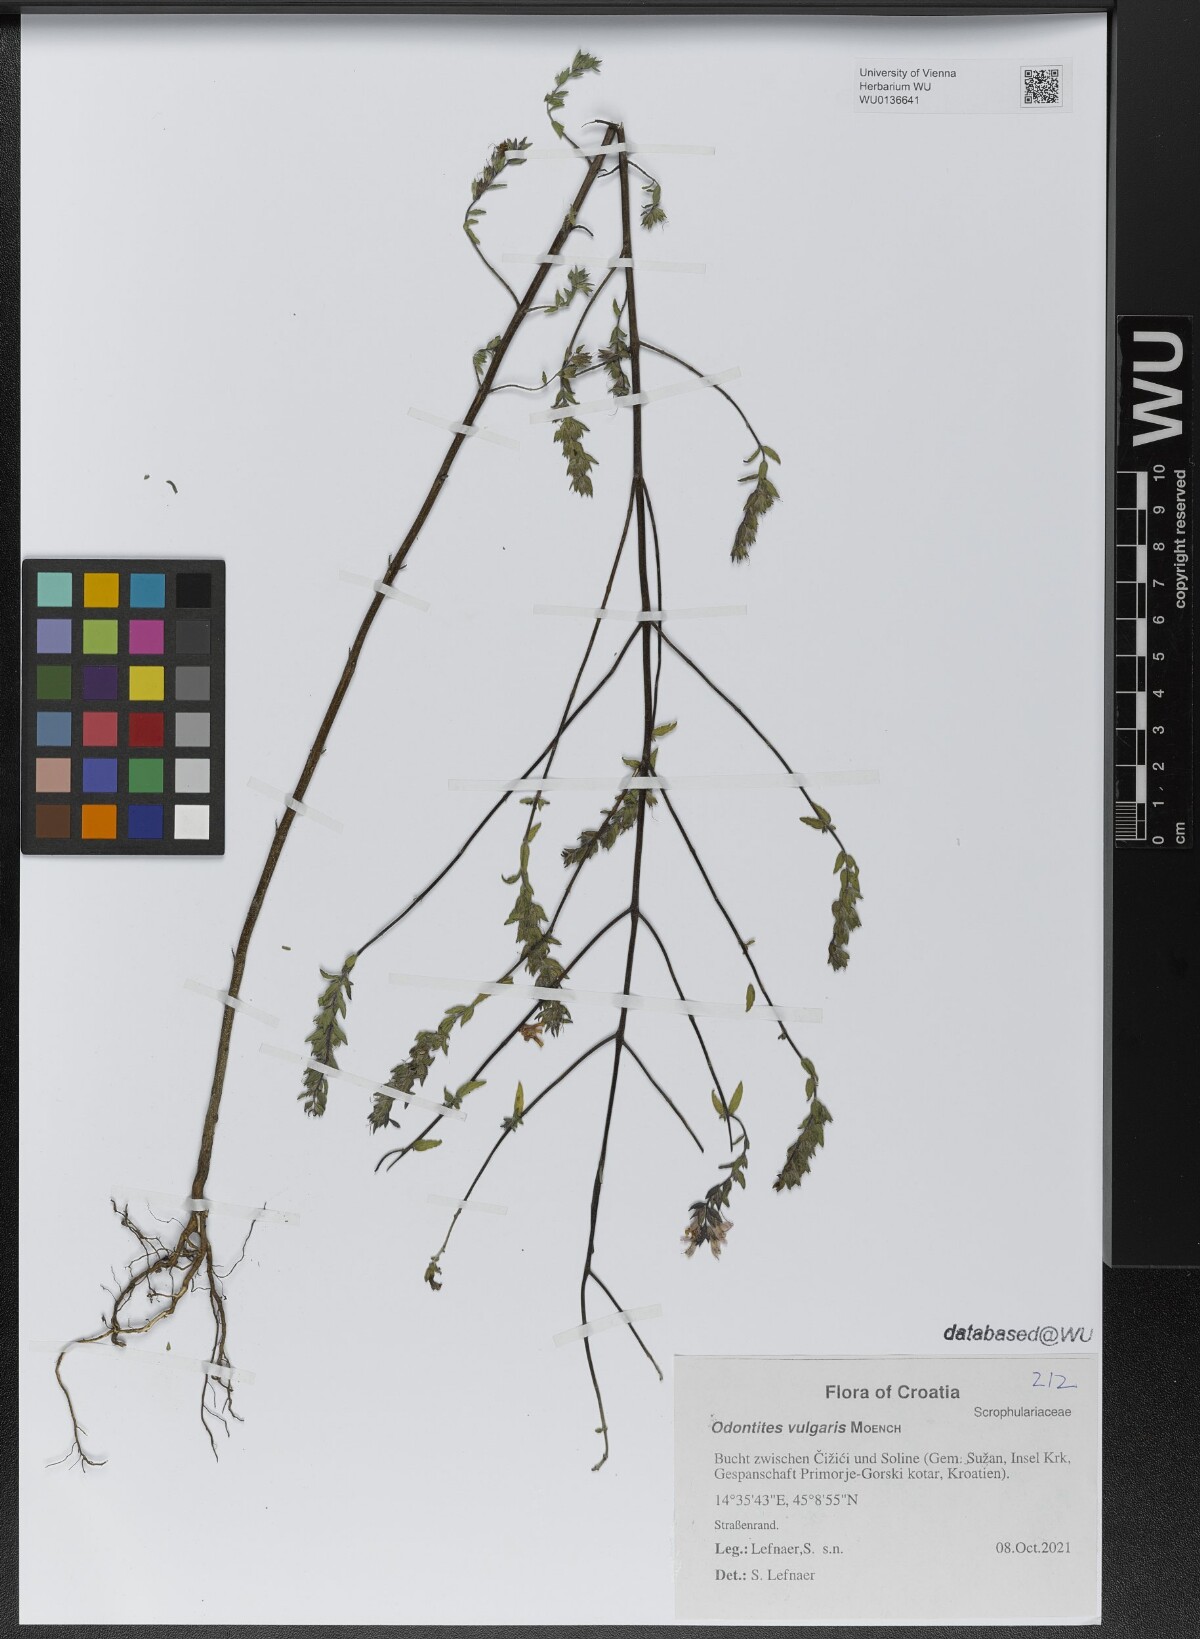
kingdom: Plantae
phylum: Tracheophyta
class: Magnoliopsida
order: Lamiales
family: Orobanchaceae
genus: Odontites
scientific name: Odontites vulgaris
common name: Broomrape
